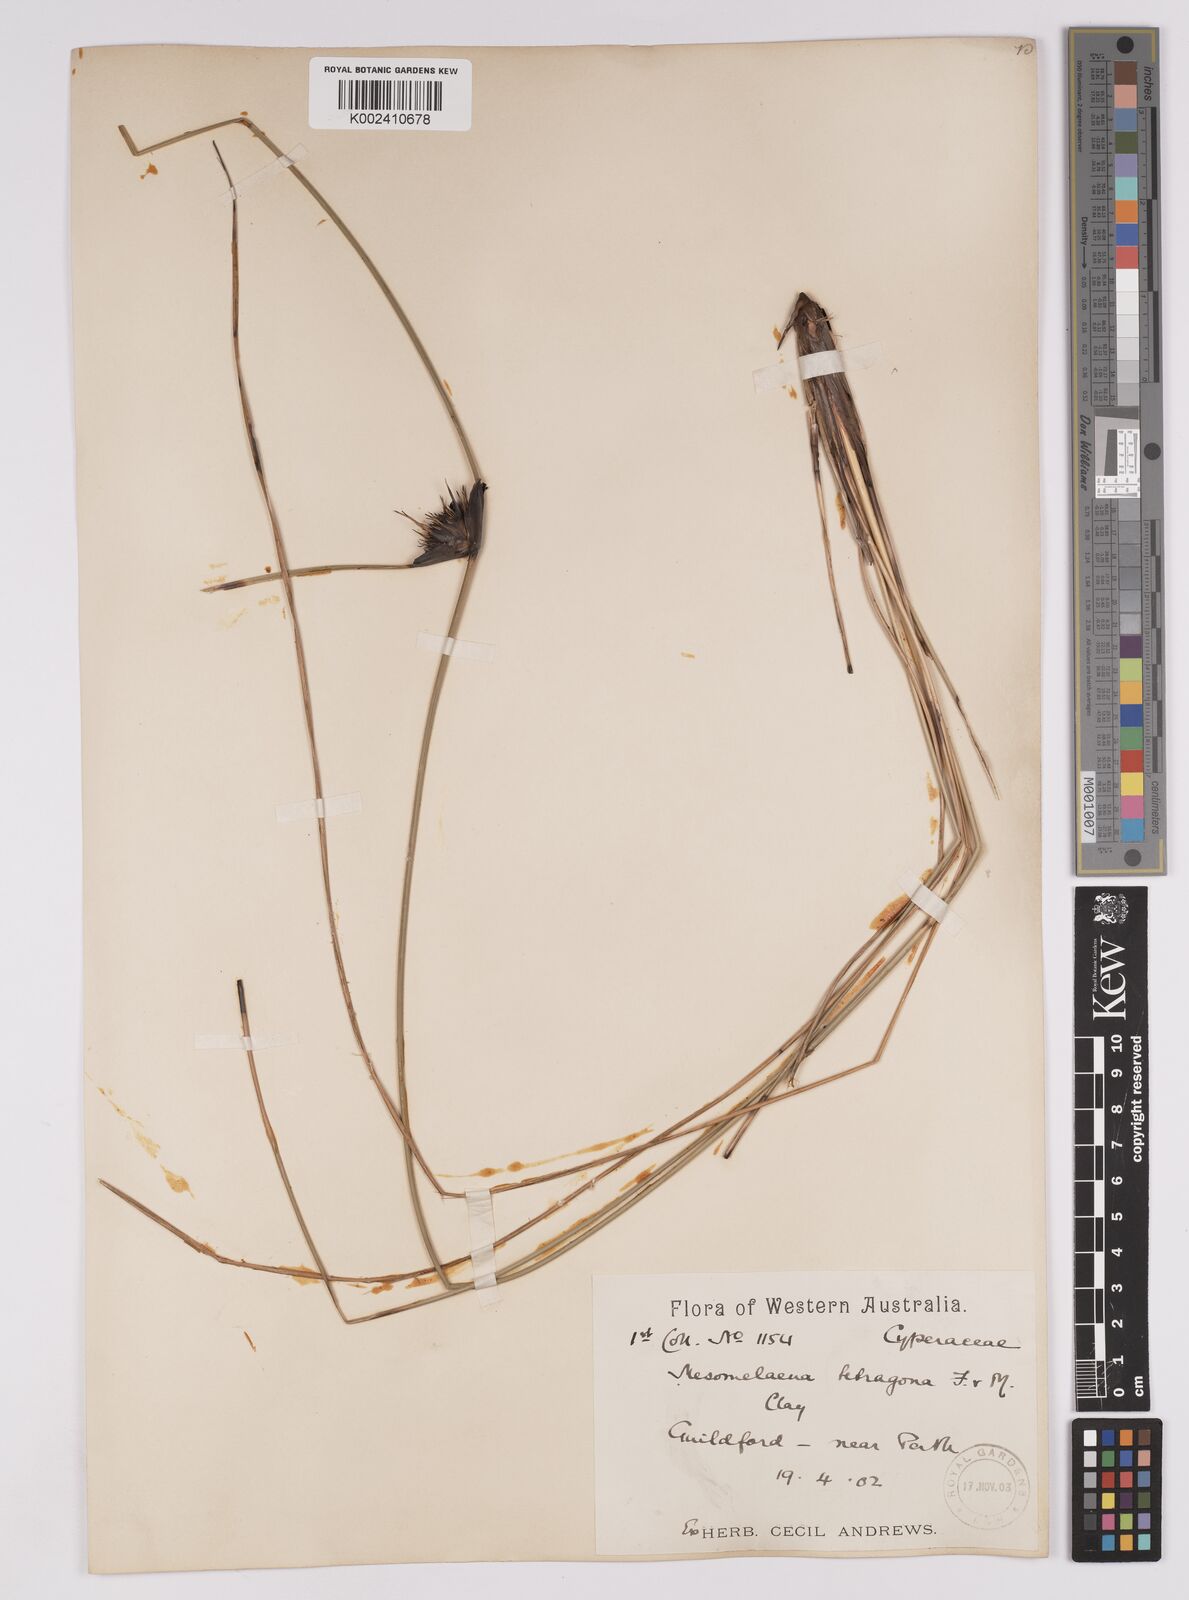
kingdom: Plantae
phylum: Tracheophyta
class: Liliopsida
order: Poales
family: Cyperaceae
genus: Mesomelaena
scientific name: Mesomelaena tetragona
